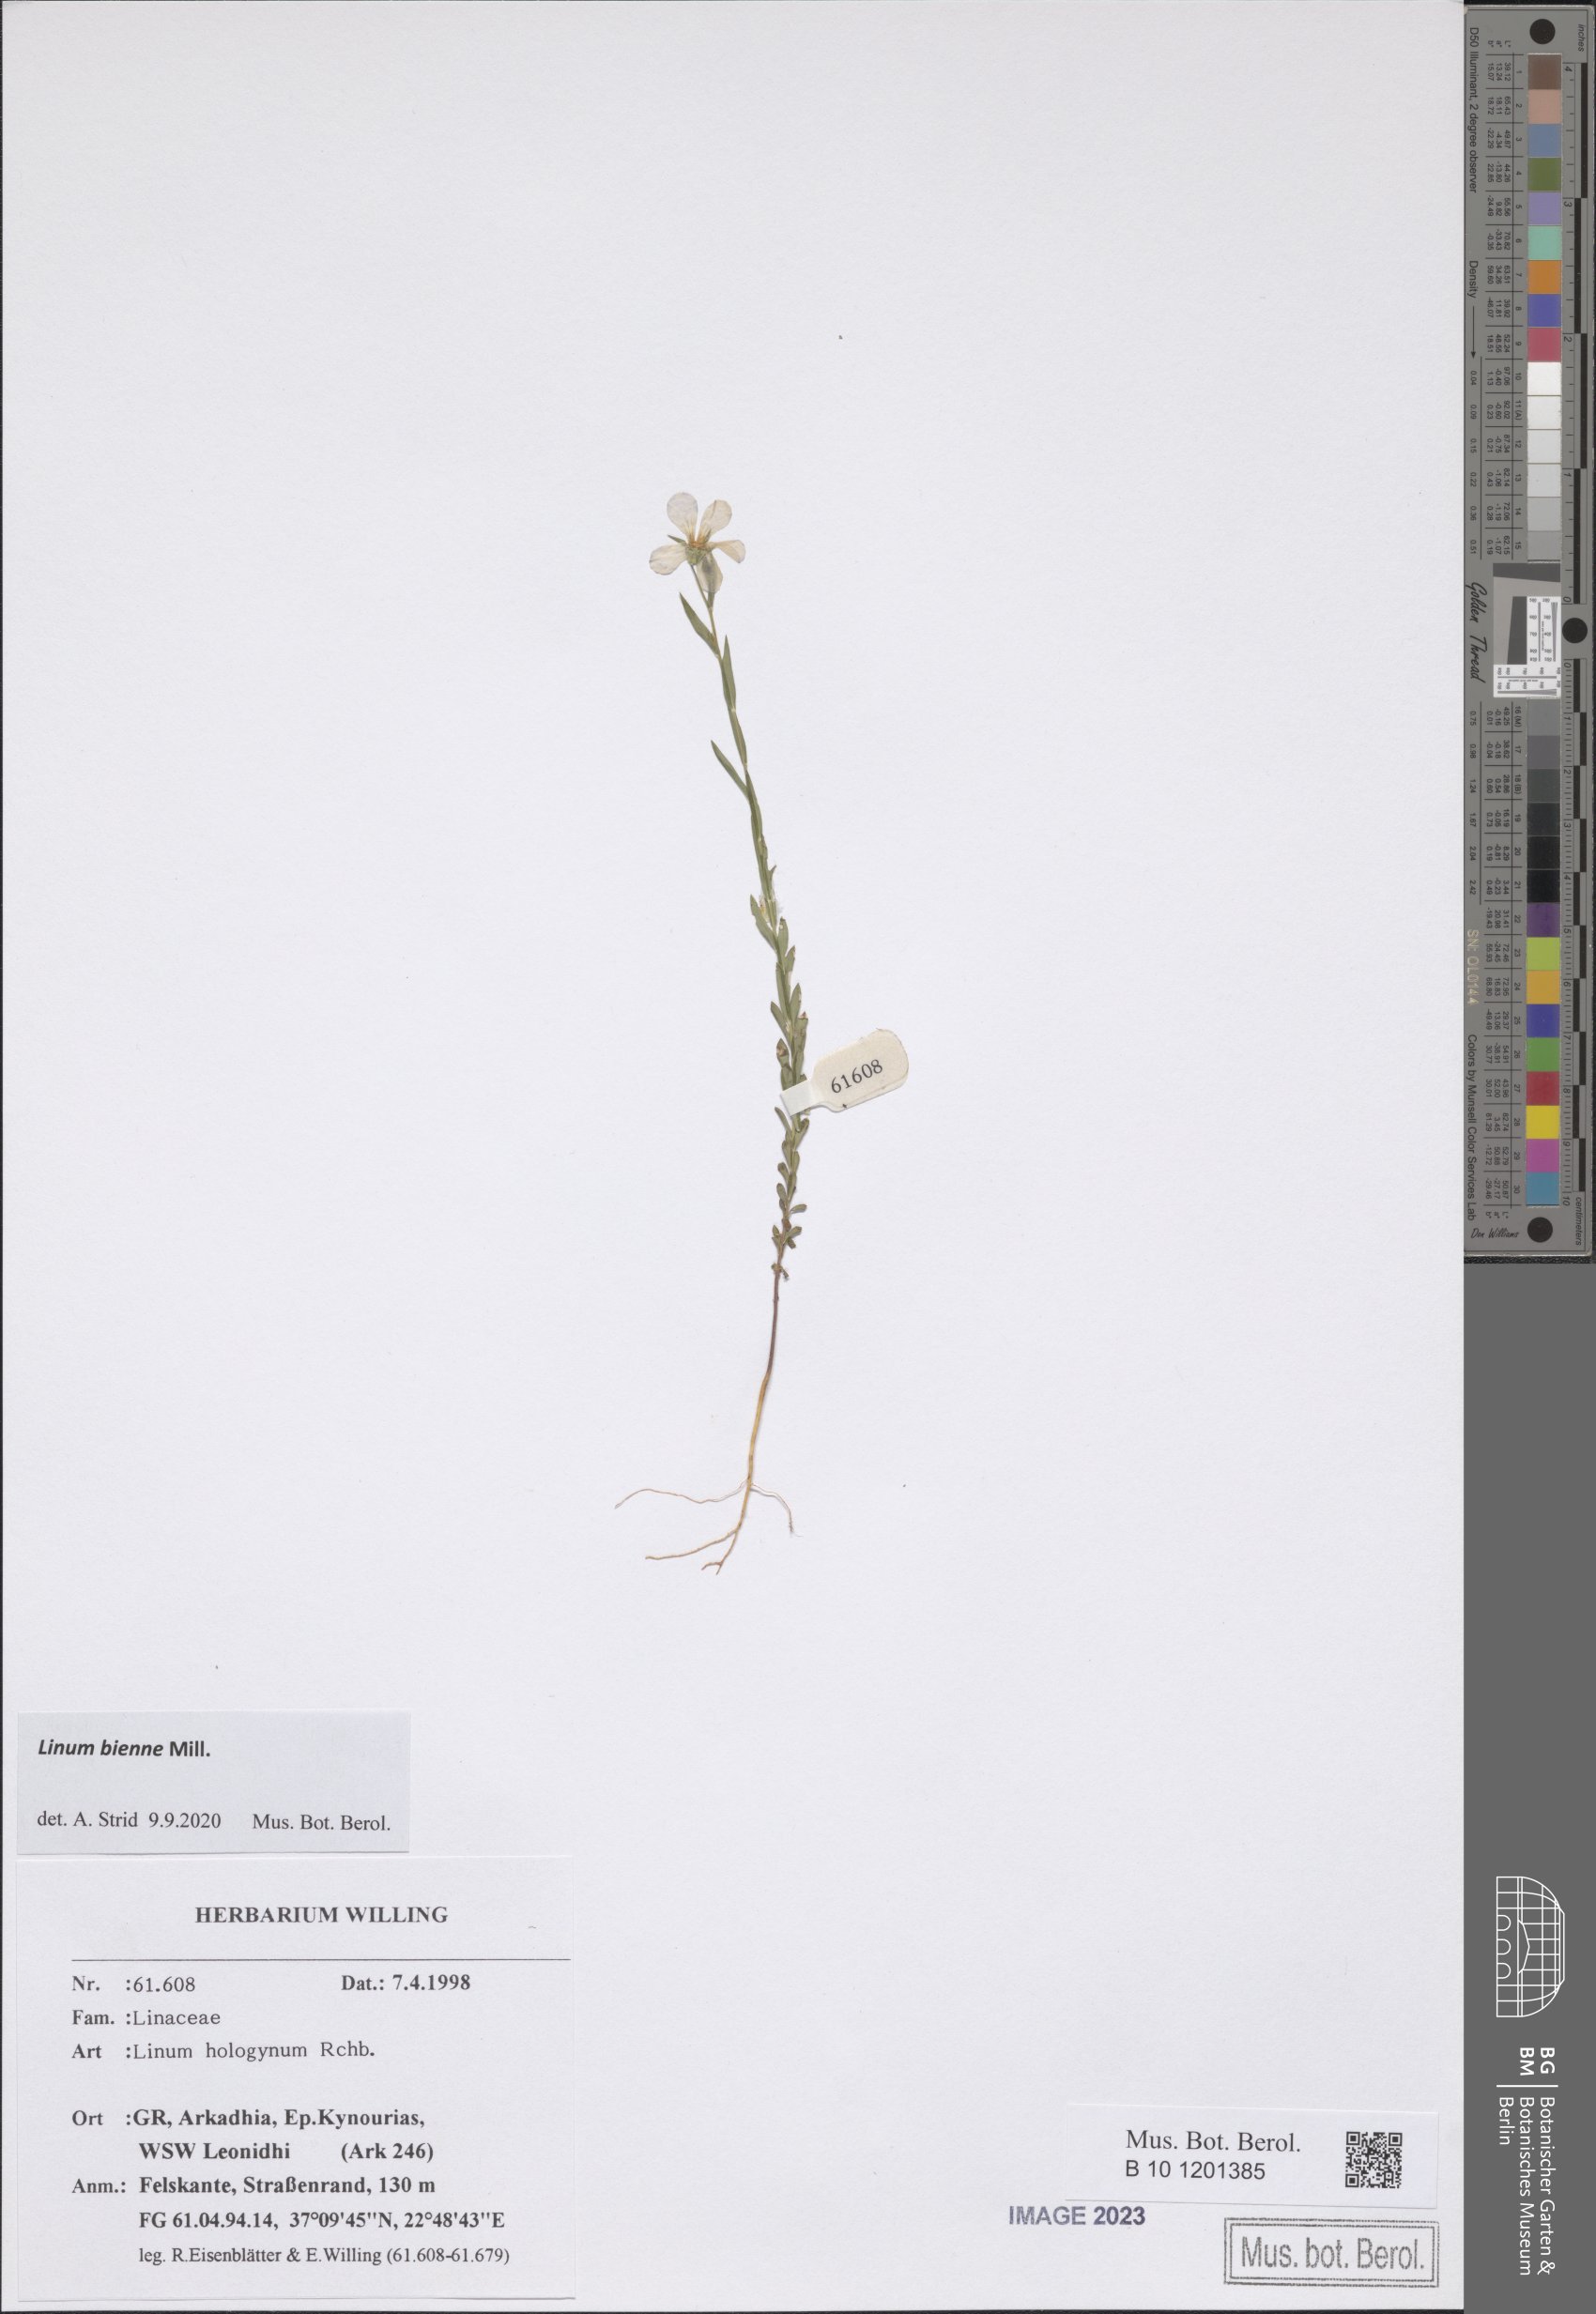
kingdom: Plantae
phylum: Tracheophyta
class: Magnoliopsida
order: Malpighiales
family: Linaceae
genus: Linum
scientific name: Linum bienne
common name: Pale flax
